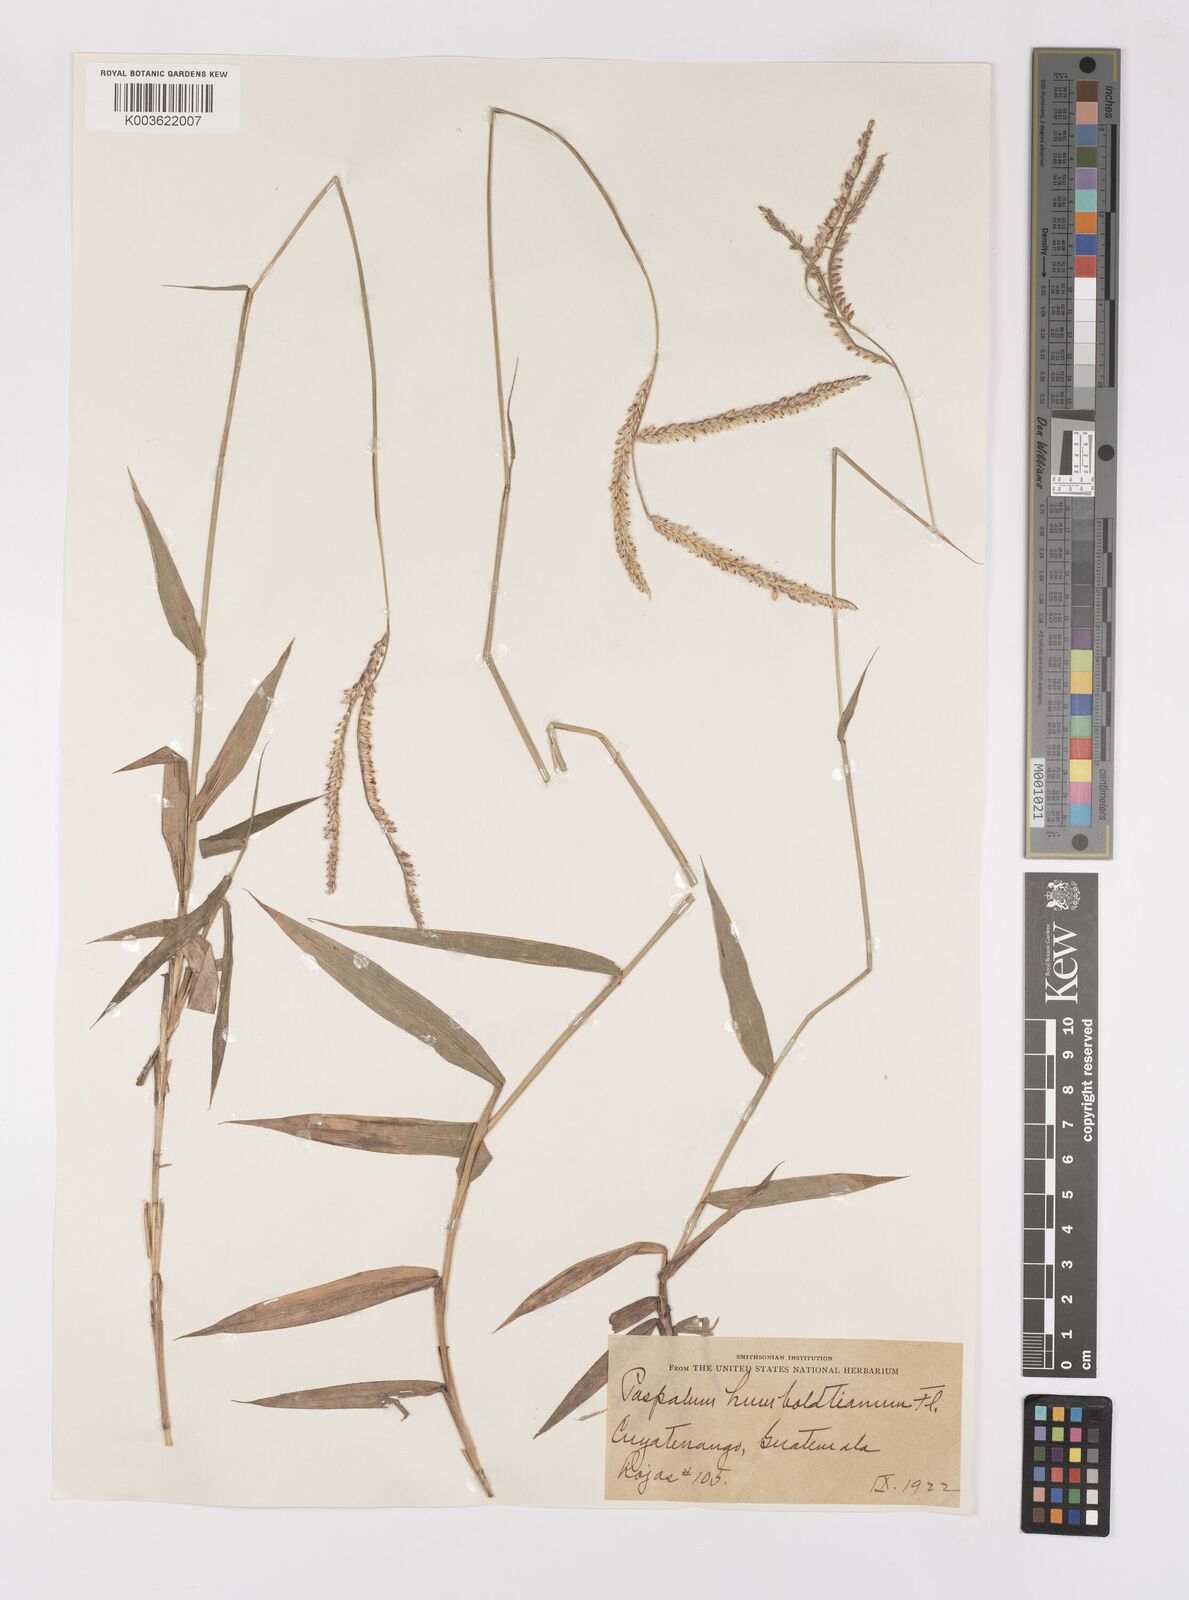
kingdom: Plantae
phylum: Tracheophyta
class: Liliopsida
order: Poales
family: Poaceae
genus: Paspalum
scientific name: Paspalum humboldtianum
